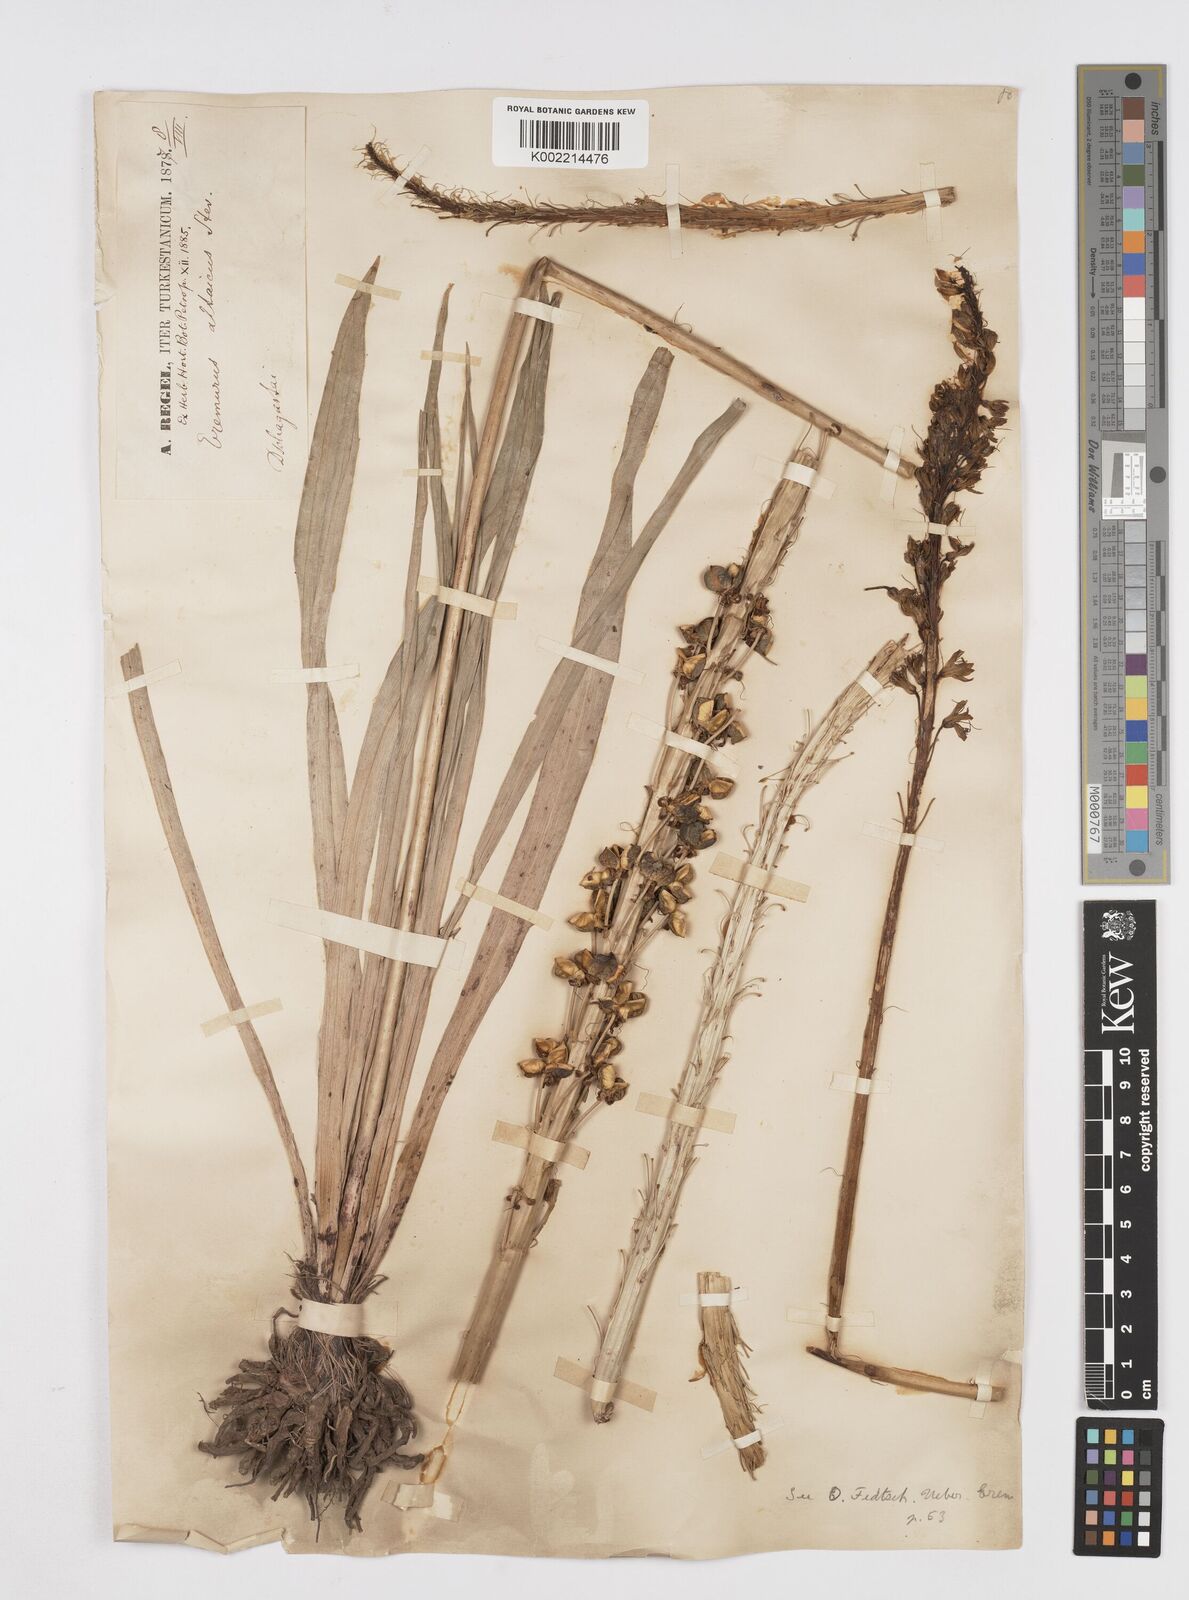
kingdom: Plantae
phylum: Tracheophyta
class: Liliopsida
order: Asparagales
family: Asphodelaceae
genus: Eremurus
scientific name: Eremurus altaicus
